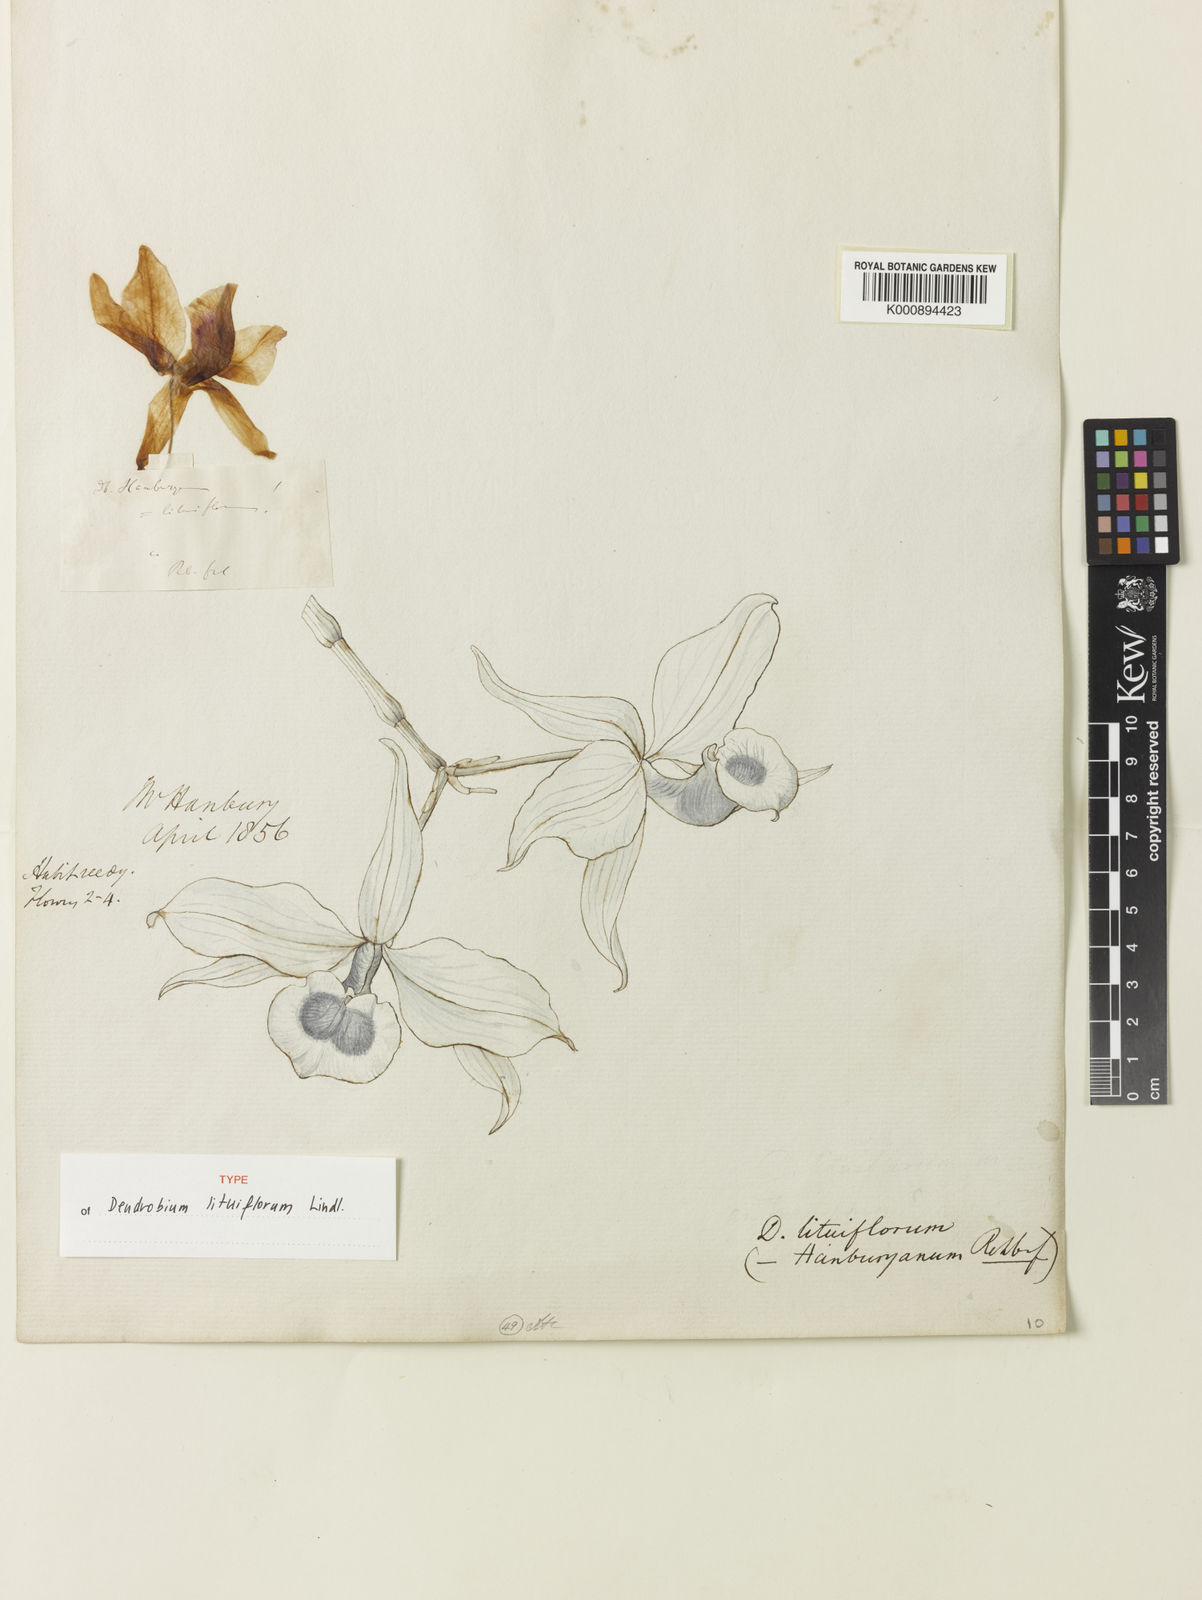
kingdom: Plantae
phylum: Tracheophyta
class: Liliopsida
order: Asparagales
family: Orchidaceae
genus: Dendrobium
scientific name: Dendrobium lituiflorum
